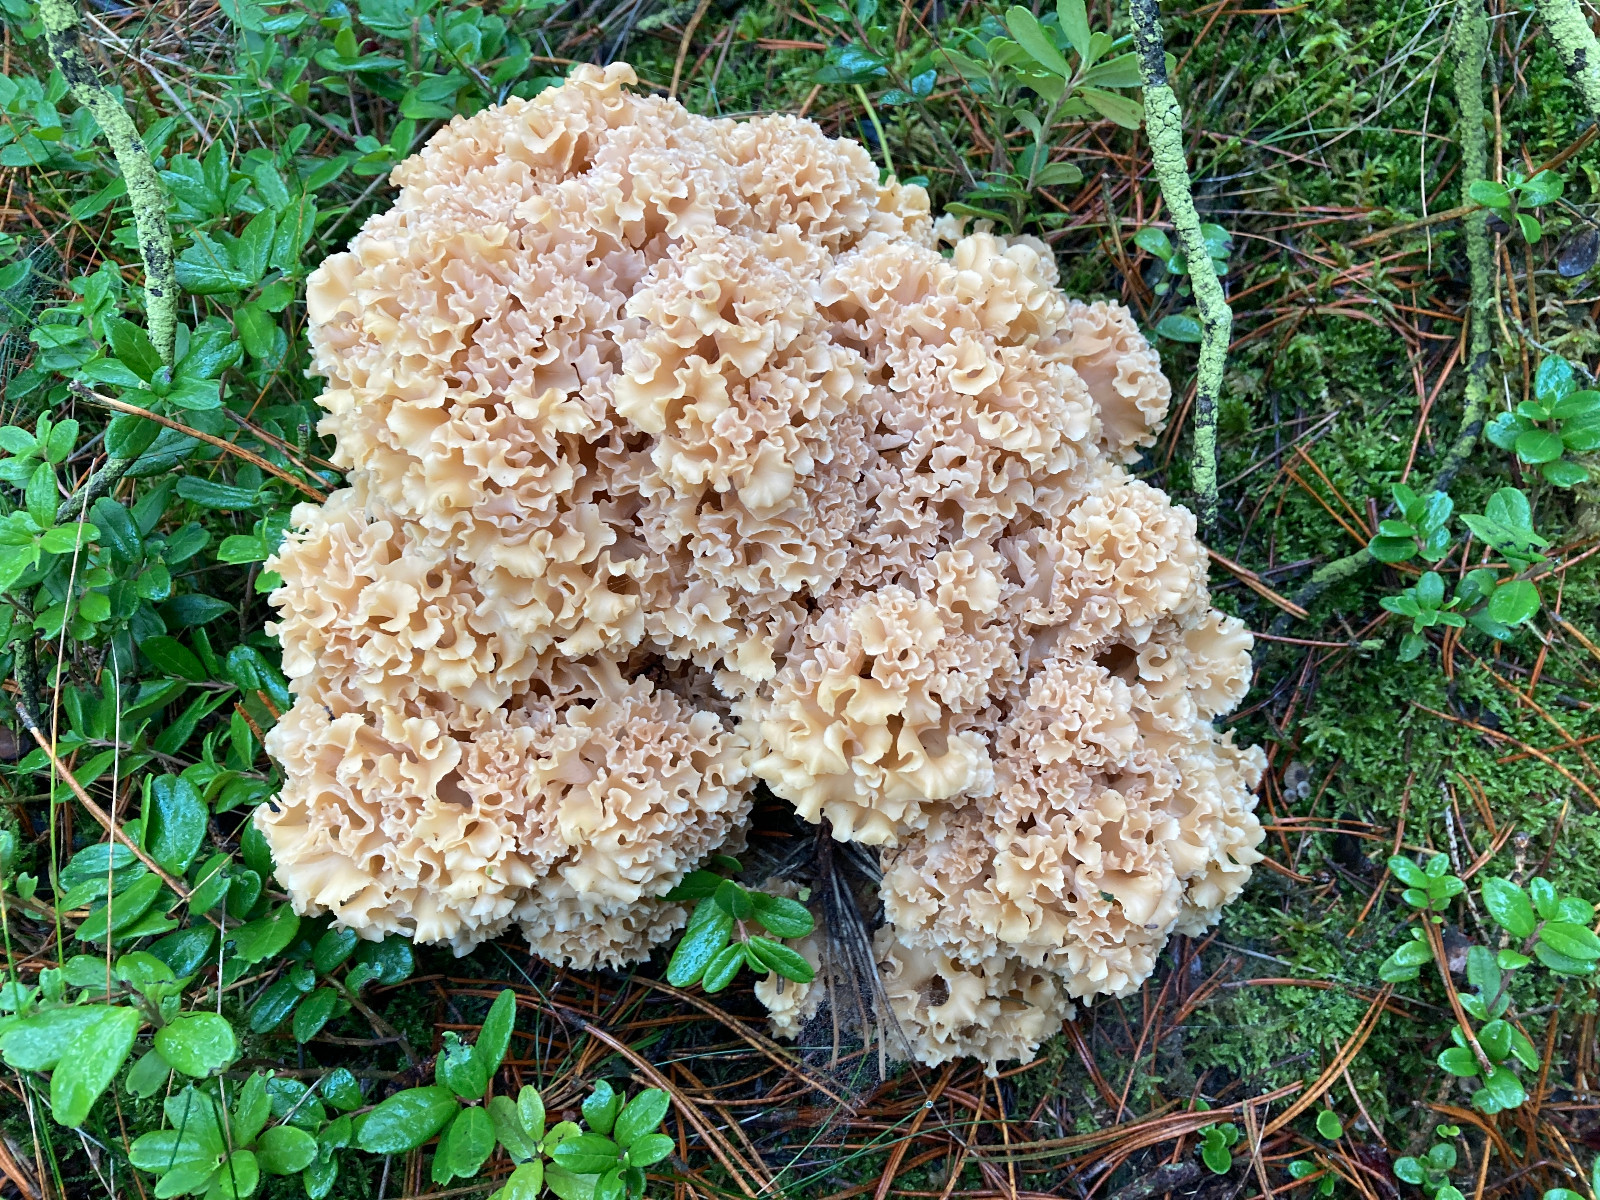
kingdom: Fungi
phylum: Basidiomycota
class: Agaricomycetes
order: Polyporales
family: Sparassidaceae
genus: Sparassis
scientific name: Sparassis crispa
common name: kruset blomkålssvamp
